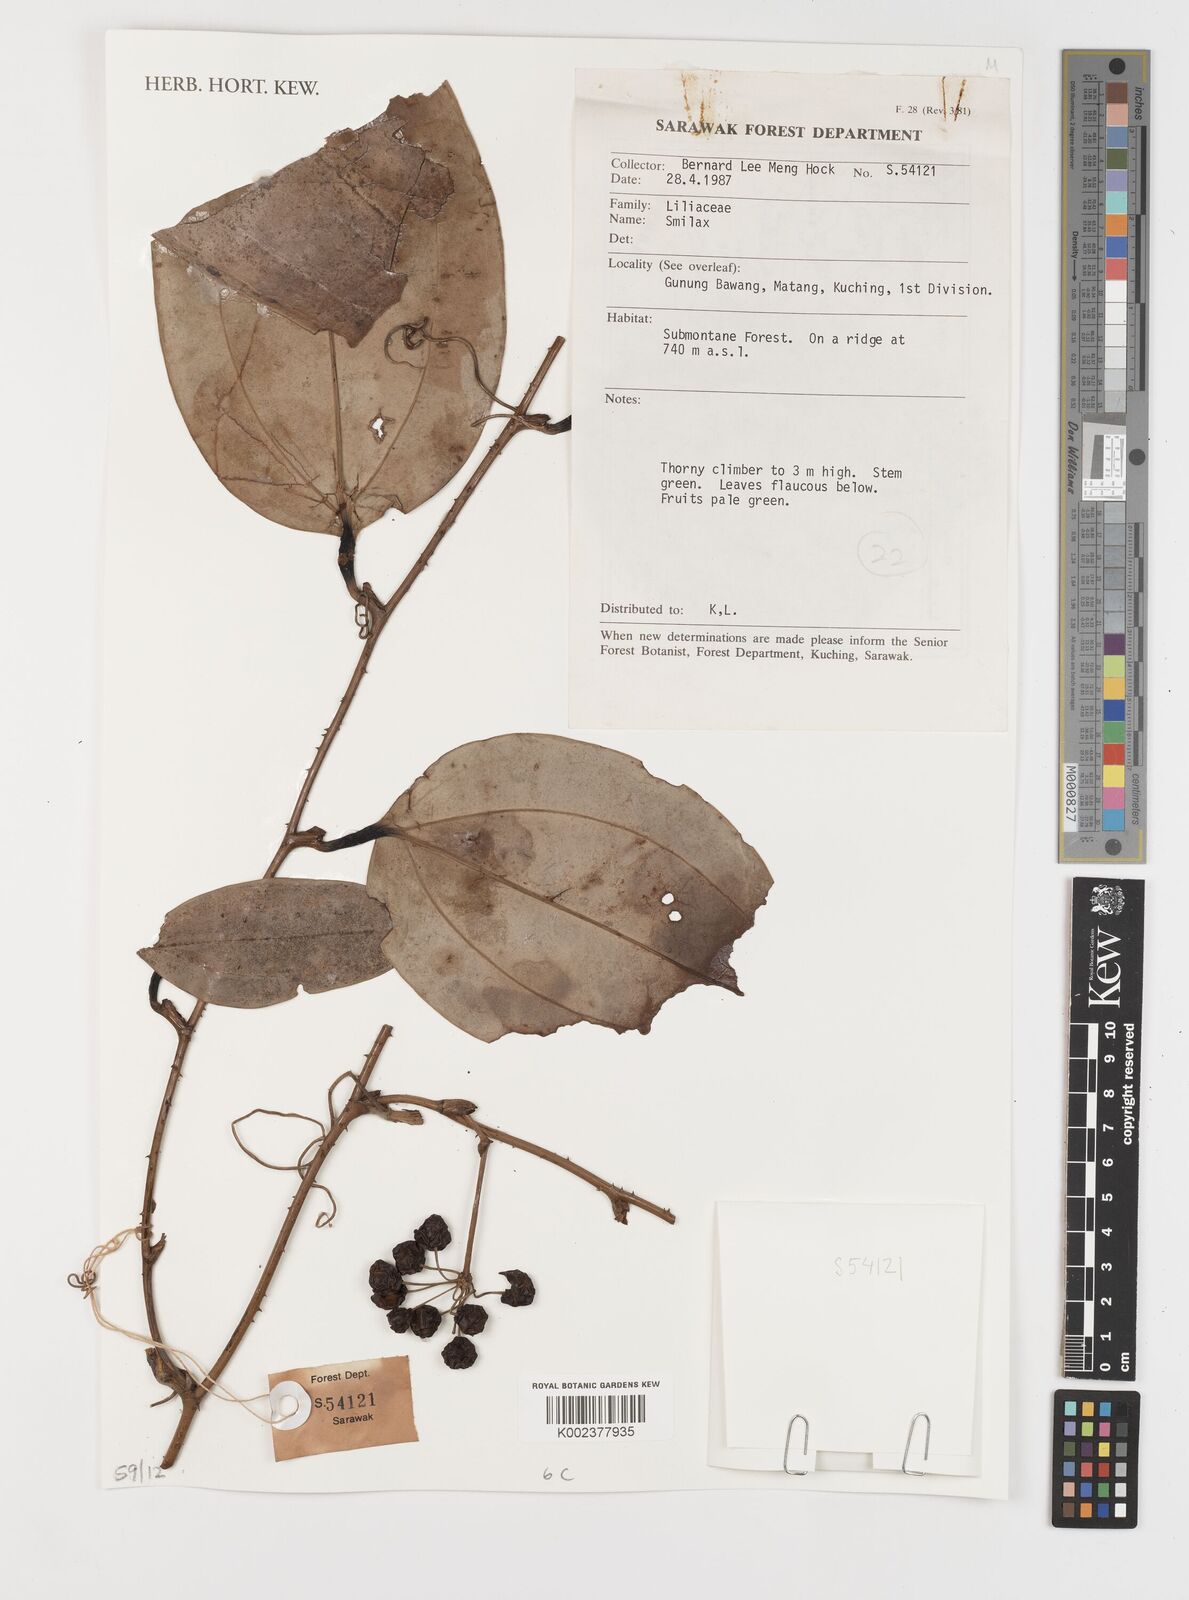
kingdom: Plantae
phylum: Tracheophyta
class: Liliopsida
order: Liliales
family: Smilacaceae
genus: Smilax
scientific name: Smilax
